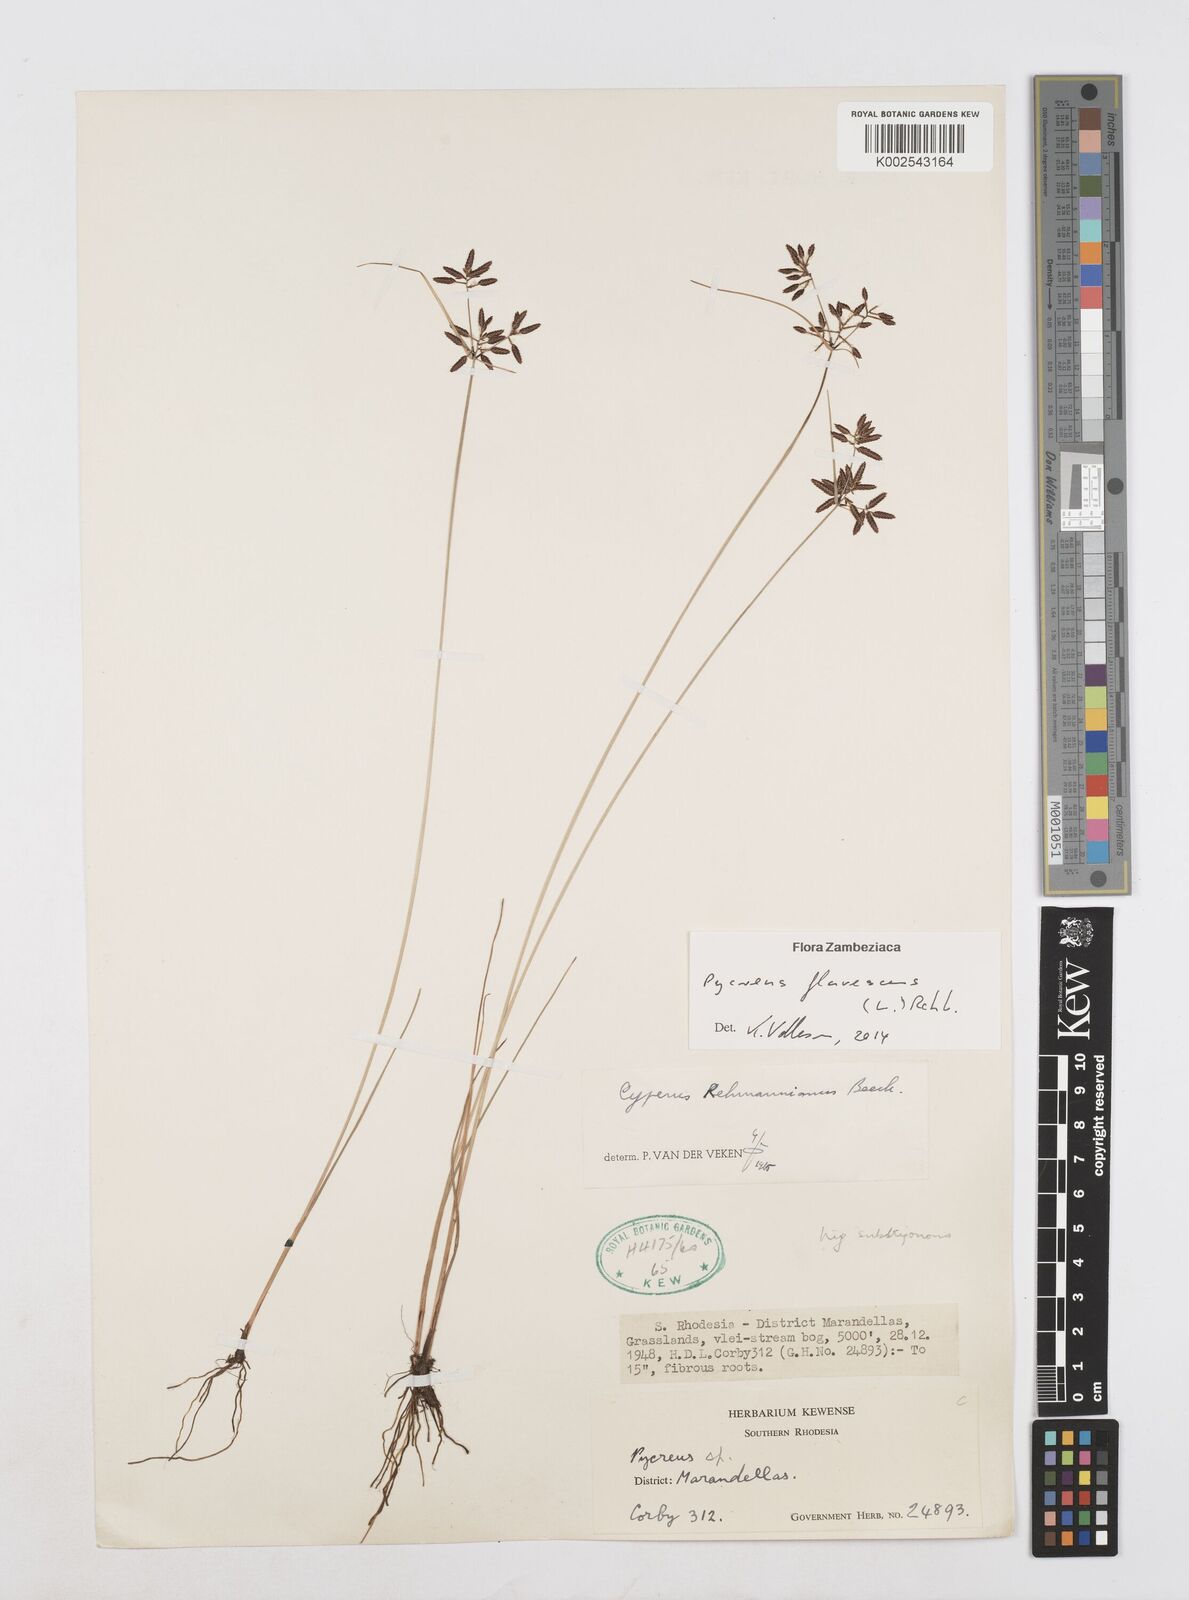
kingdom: Plantae
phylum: Tracheophyta
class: Liliopsida
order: Poales
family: Cyperaceae
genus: Cyperus
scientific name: Cyperus flavescens
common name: Yellow galingale
